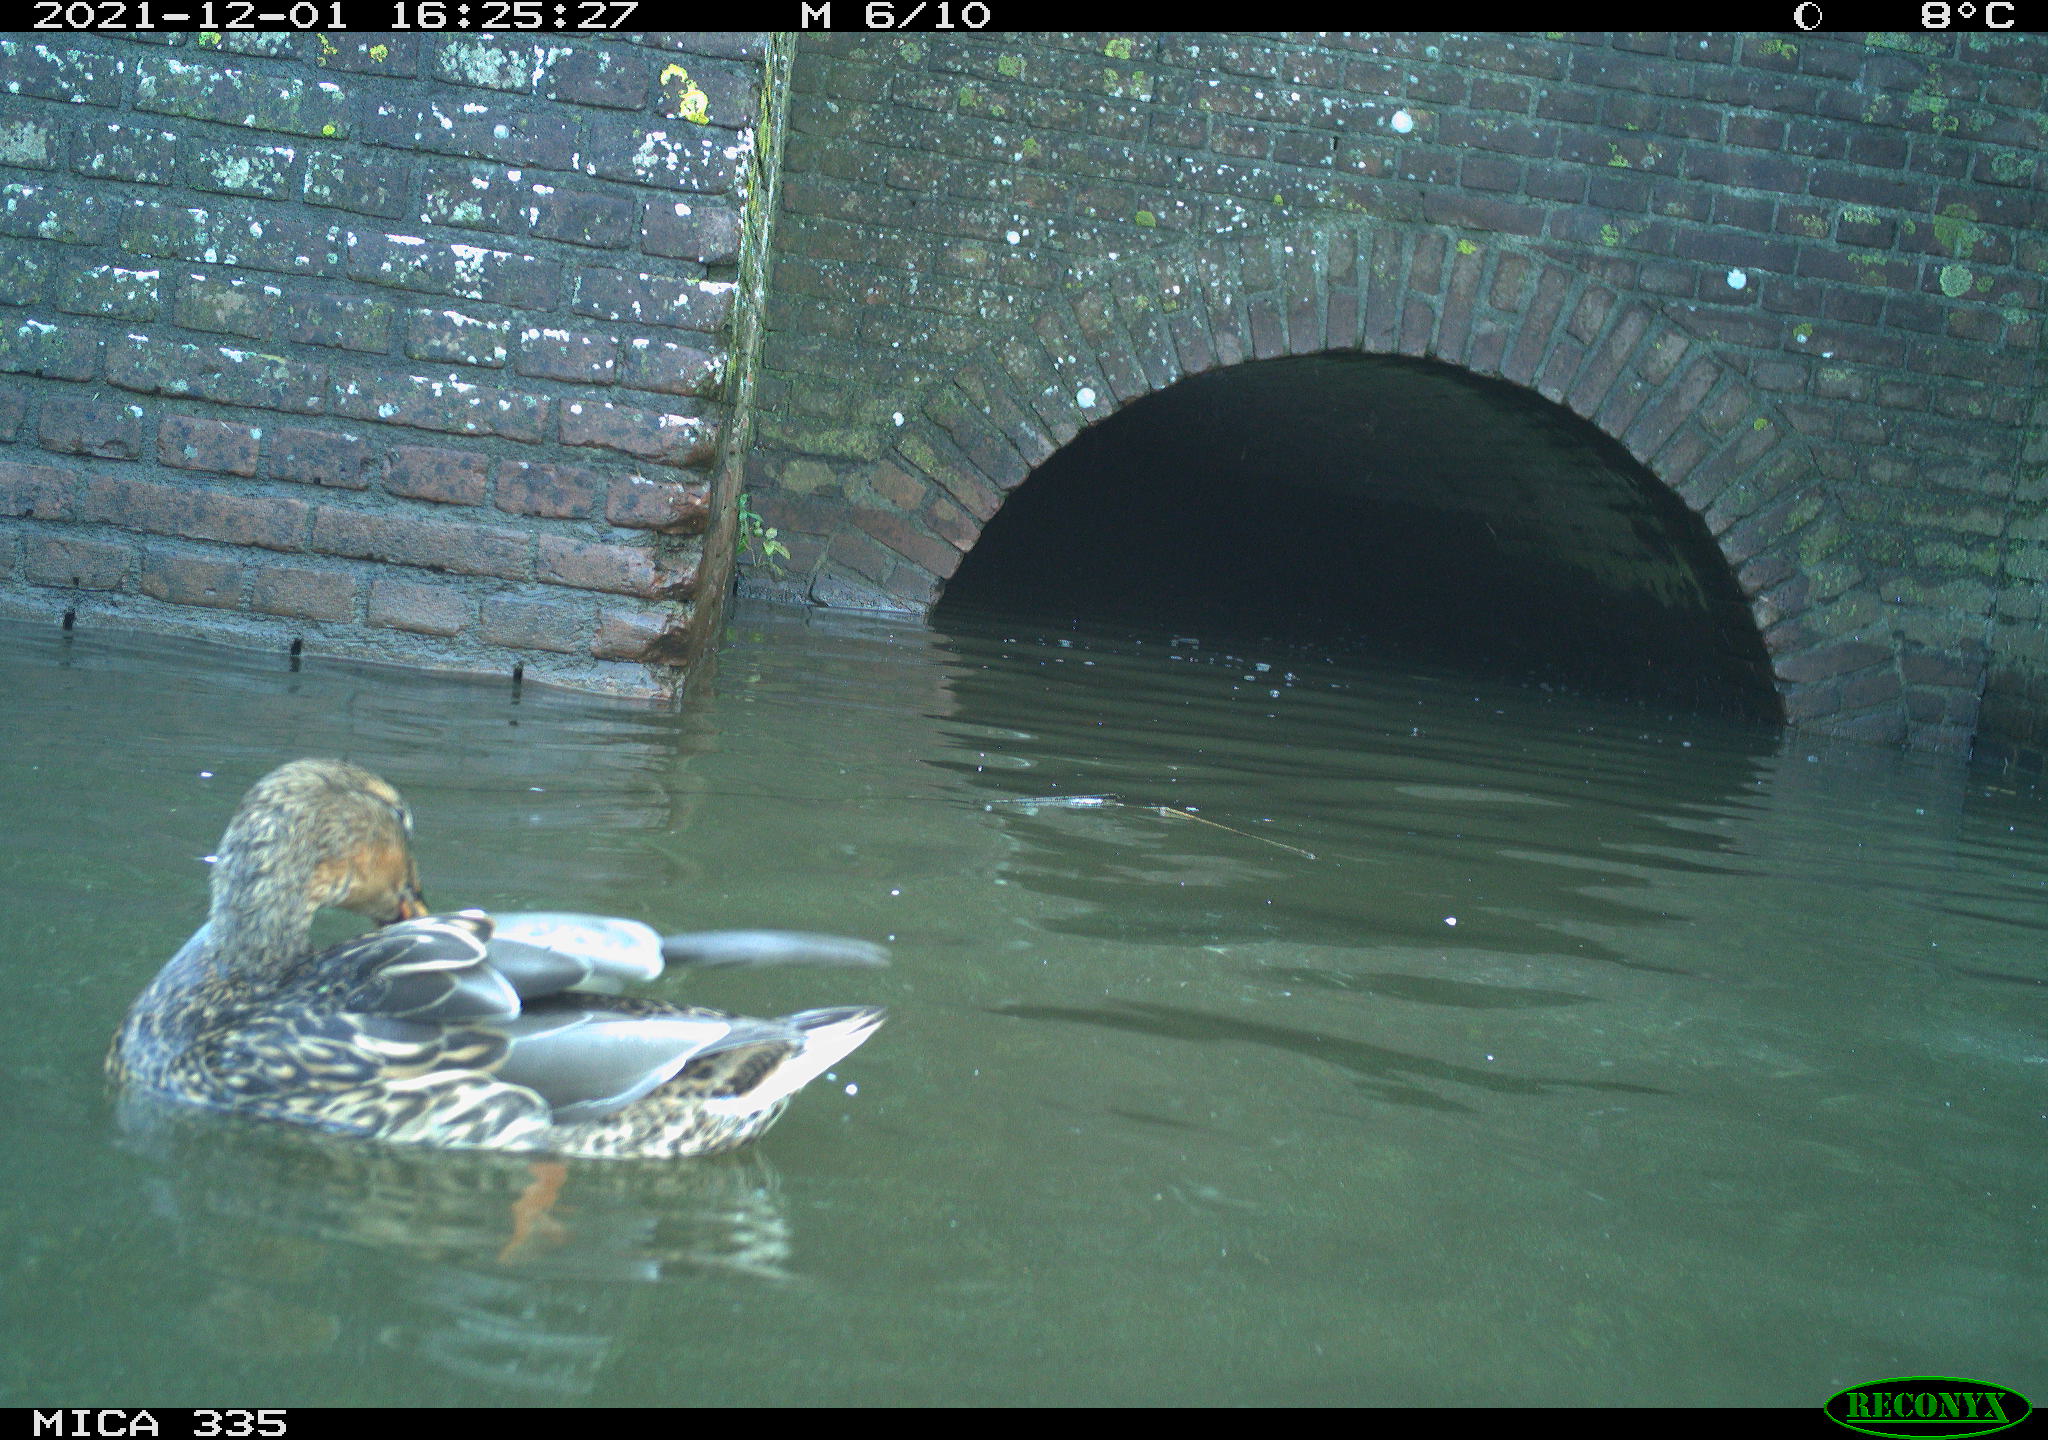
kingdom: Animalia
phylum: Chordata
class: Aves
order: Suliformes
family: Phalacrocoracidae
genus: Phalacrocorax
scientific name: Phalacrocorax carbo
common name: Great cormorant
